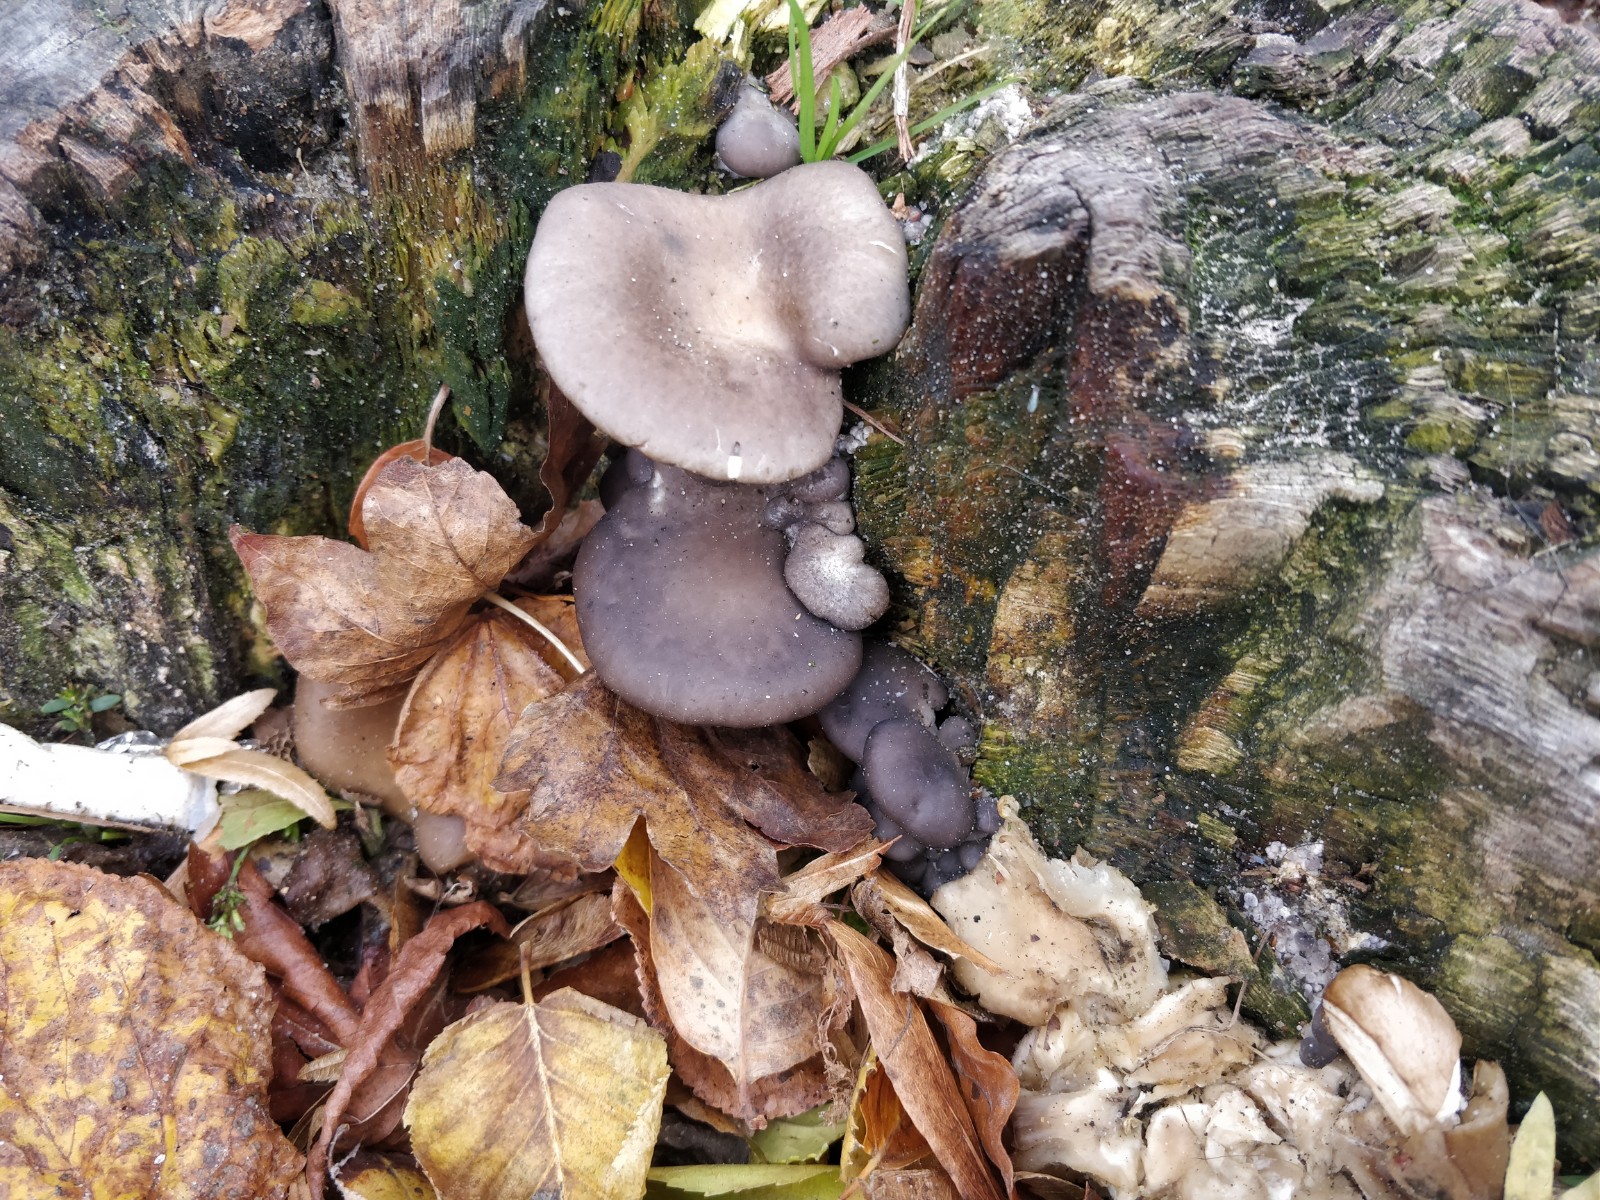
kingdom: Fungi
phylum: Basidiomycota
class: Agaricomycetes
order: Agaricales
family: Pleurotaceae
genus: Pleurotus
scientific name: Pleurotus ostreatus
